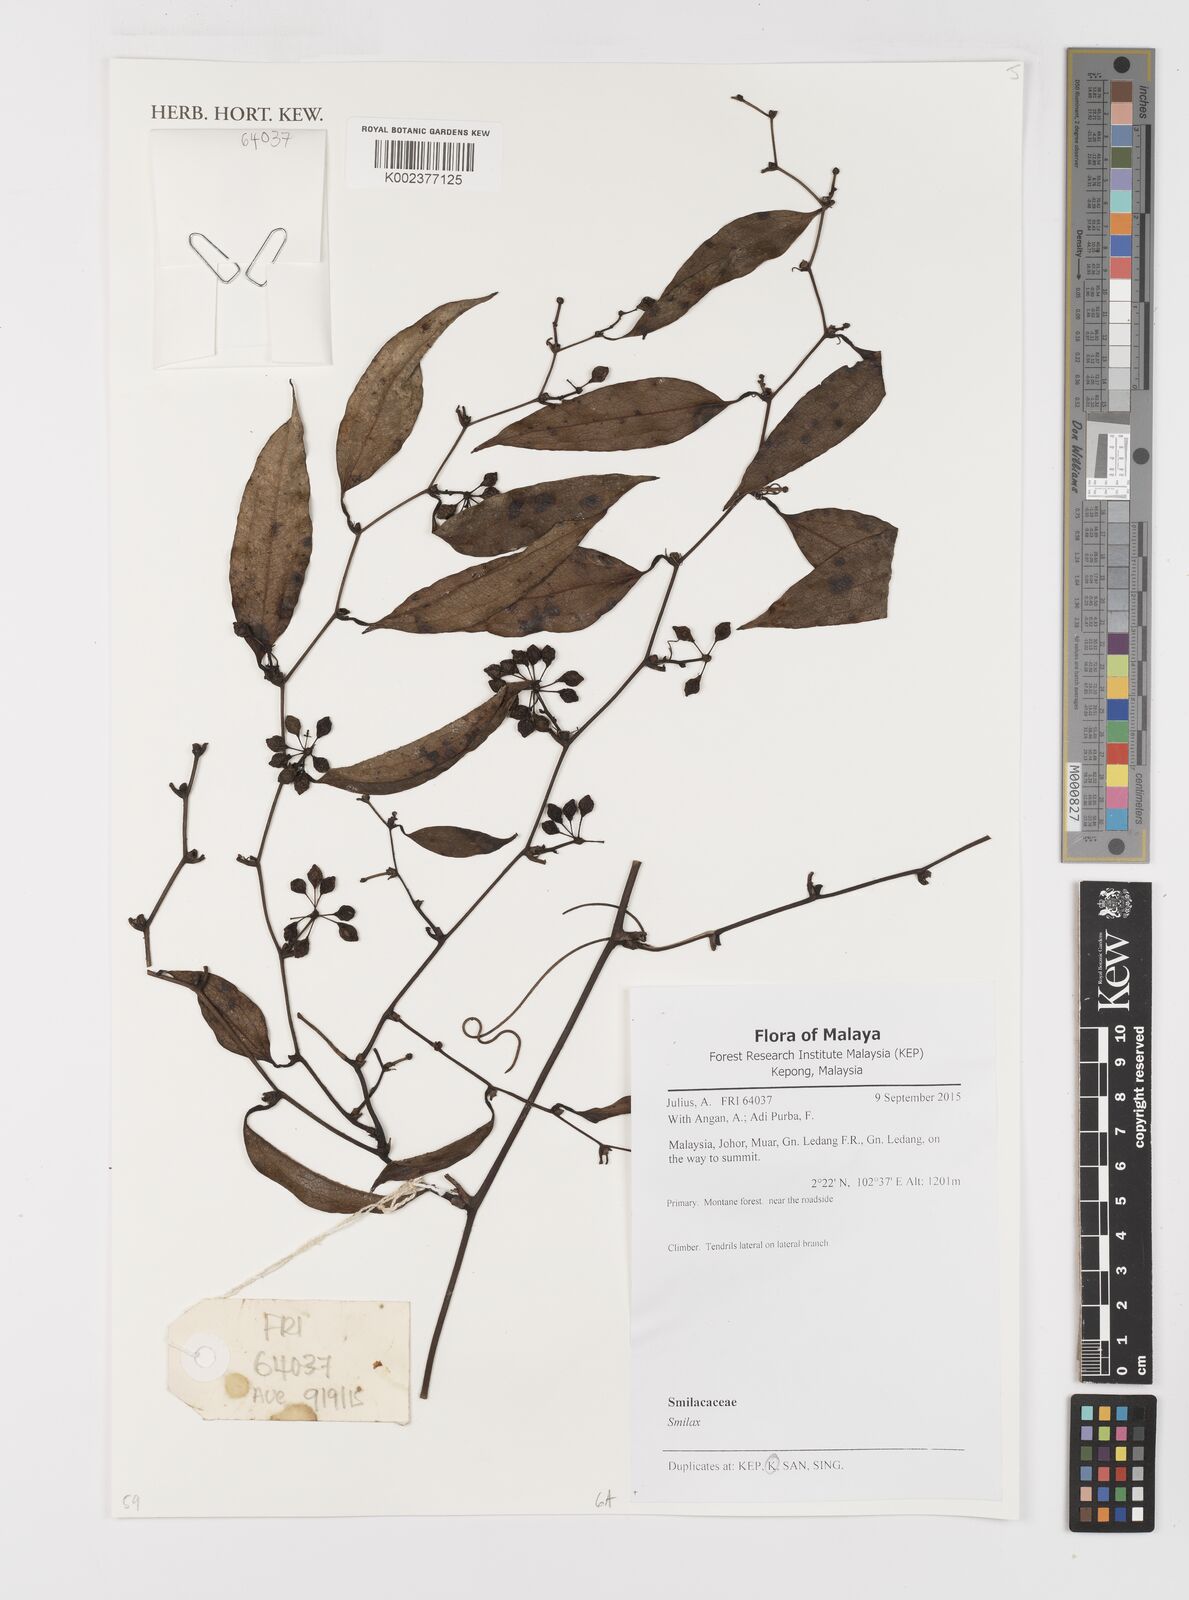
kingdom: Plantae
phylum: Tracheophyta
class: Liliopsida
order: Liliales
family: Smilacaceae
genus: Smilax
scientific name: Smilax
